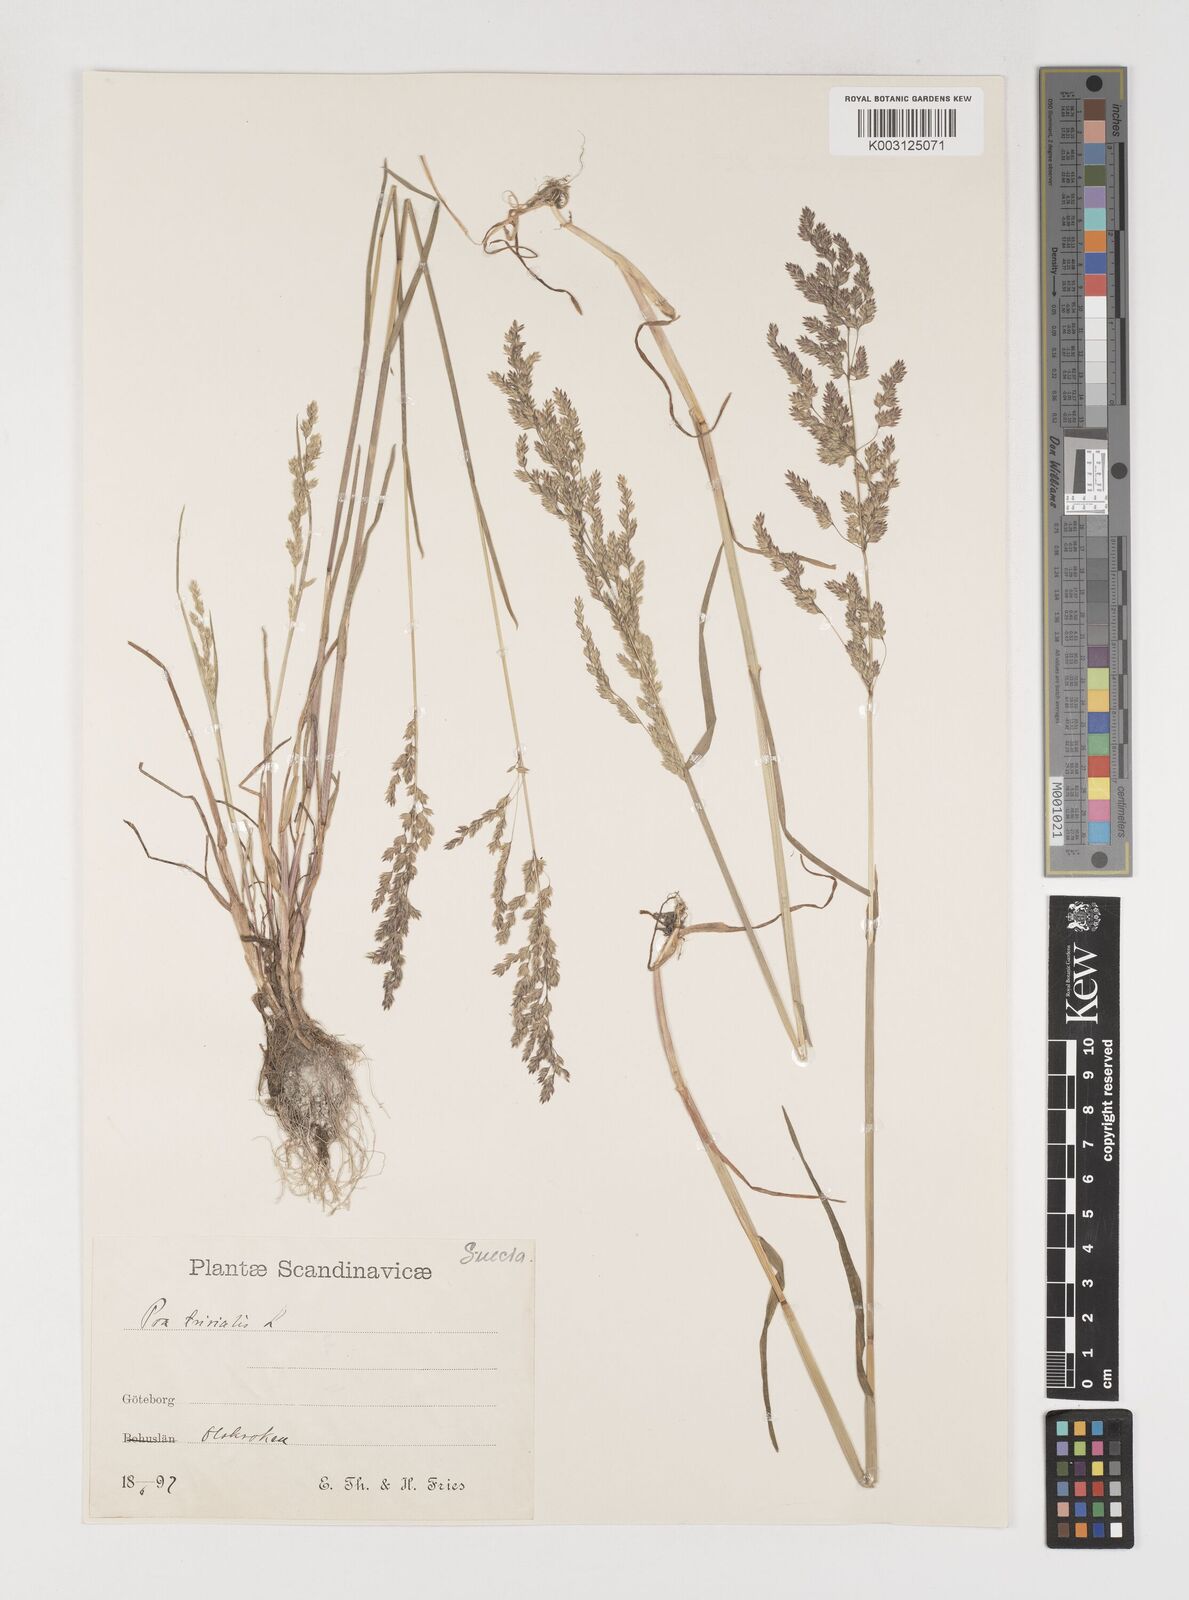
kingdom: Plantae
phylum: Tracheophyta
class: Liliopsida
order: Poales
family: Poaceae
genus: Poa
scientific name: Poa trivialis
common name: Rough bluegrass
